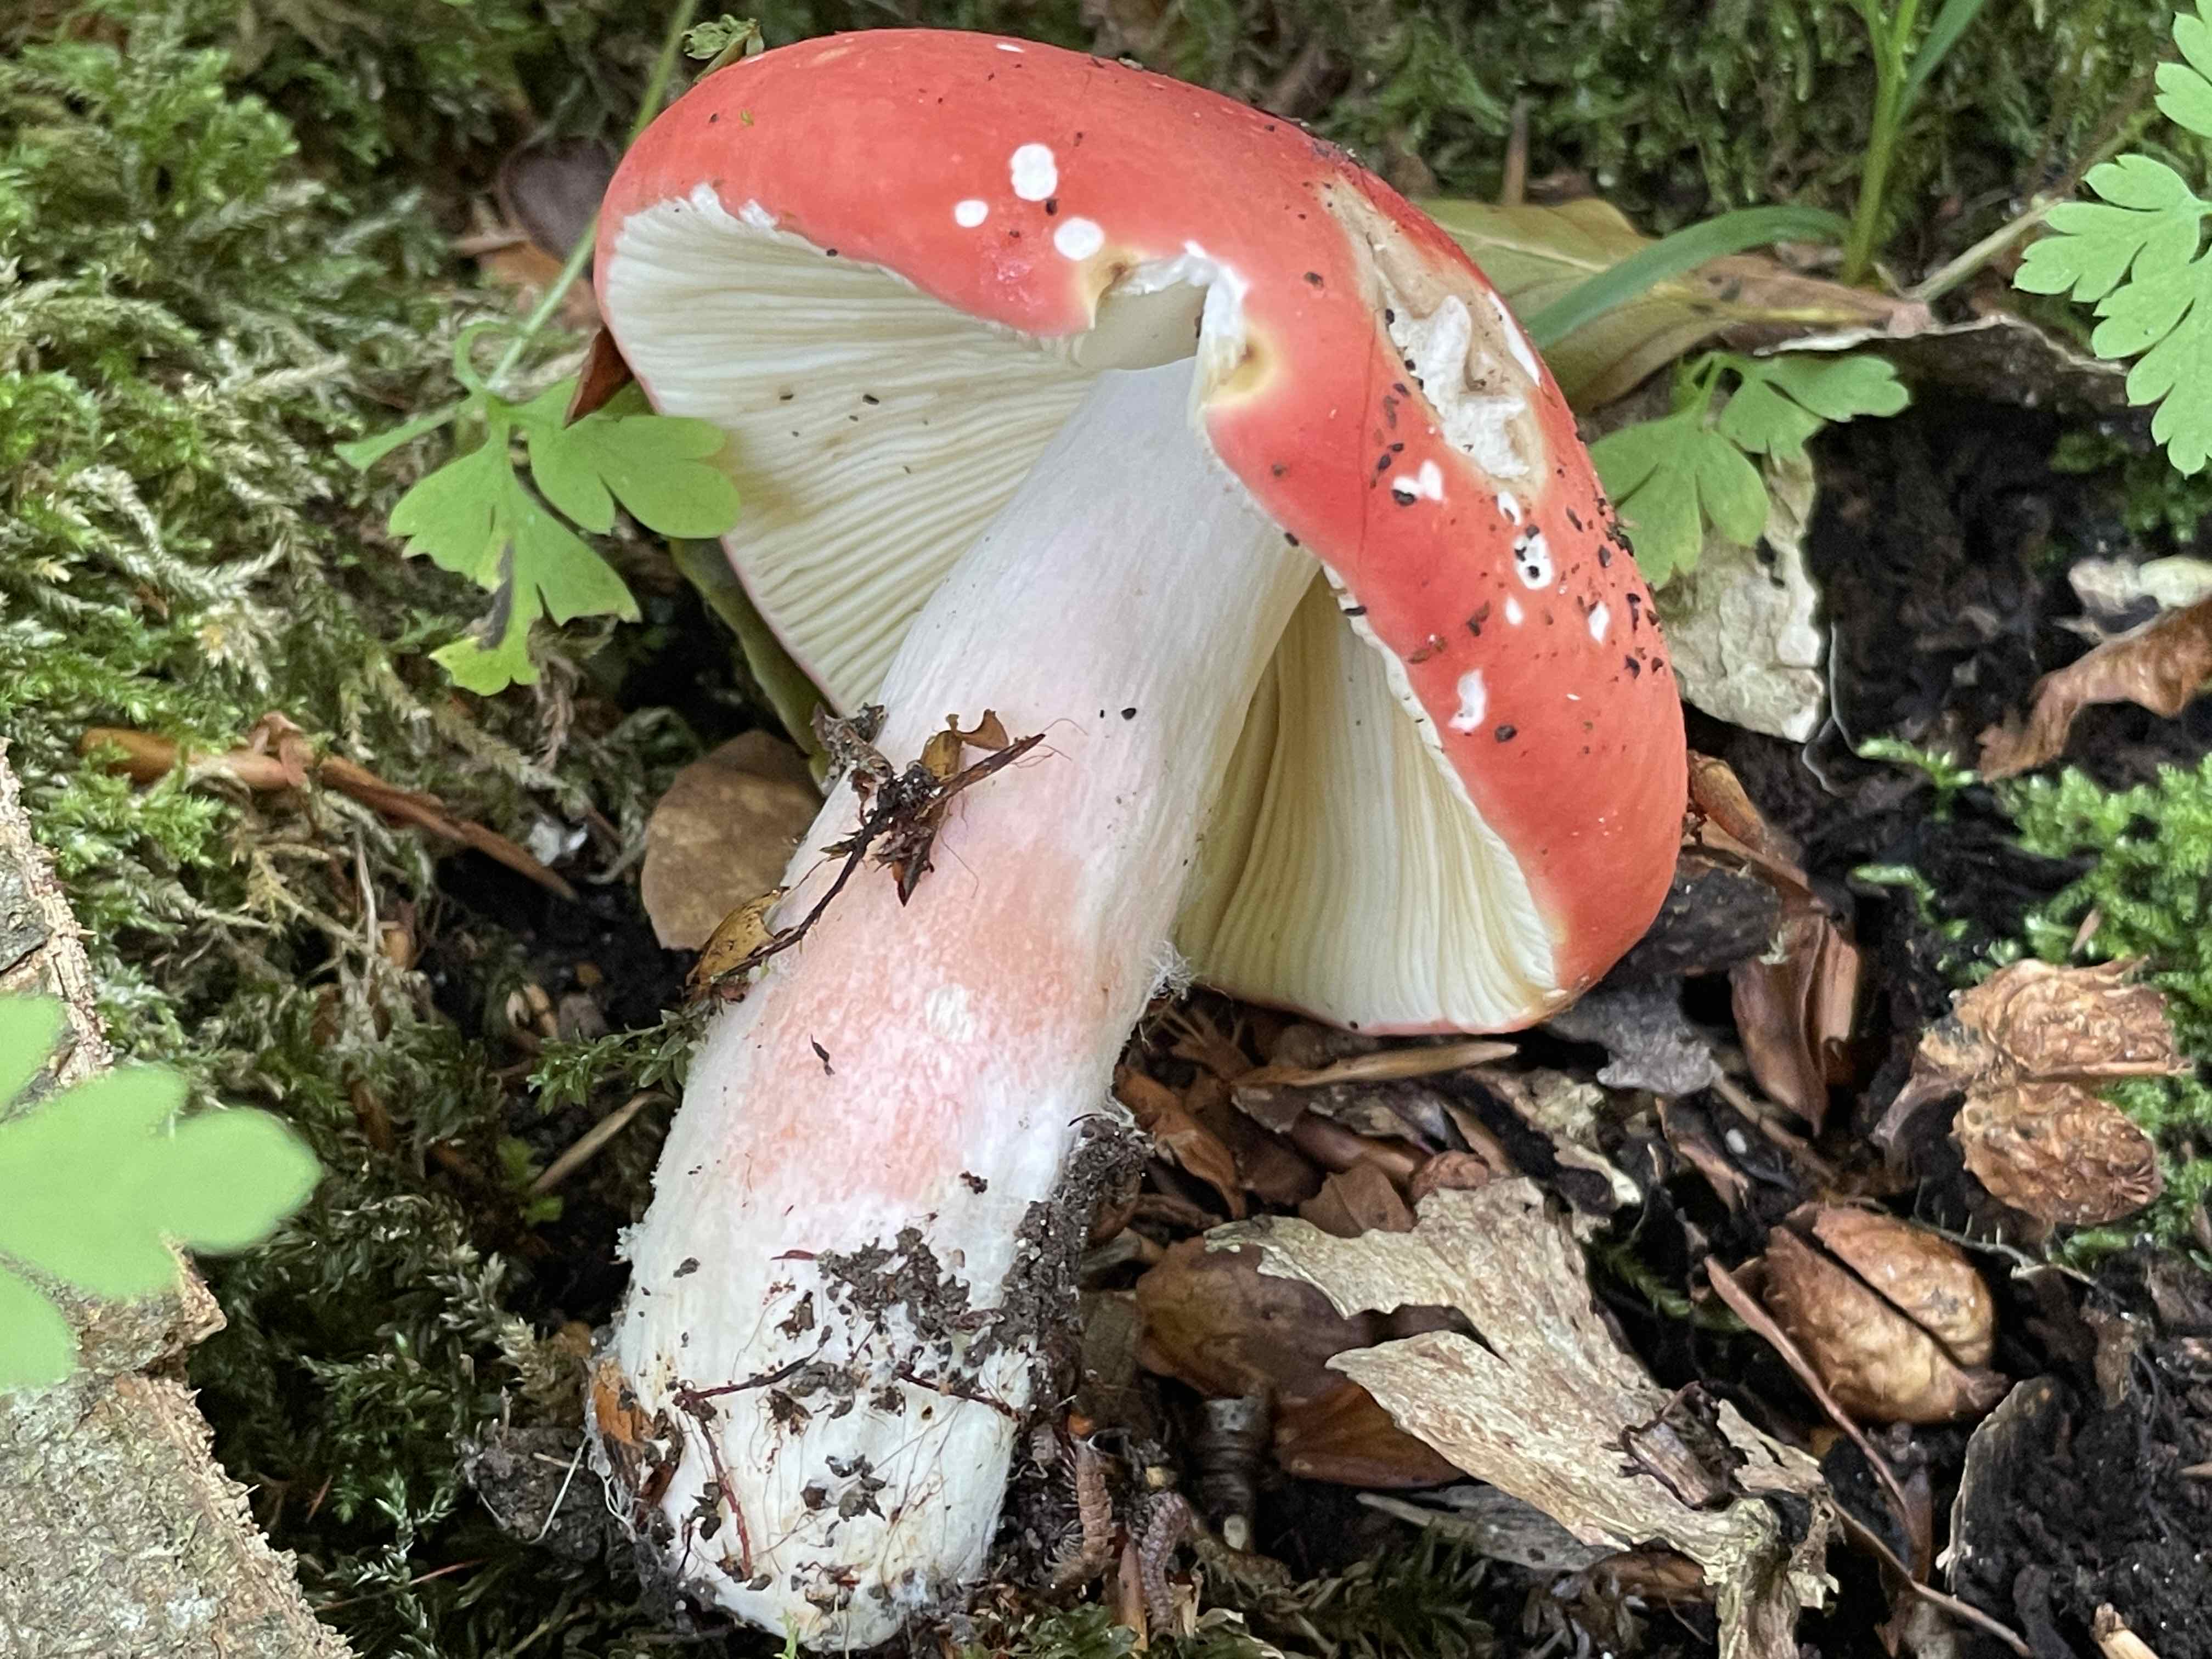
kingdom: Fungi
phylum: Basidiomycota
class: Agaricomycetes
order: Russulales
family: Russulaceae
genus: Russula
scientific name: Russula rosea
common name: fastkødet skørhat
